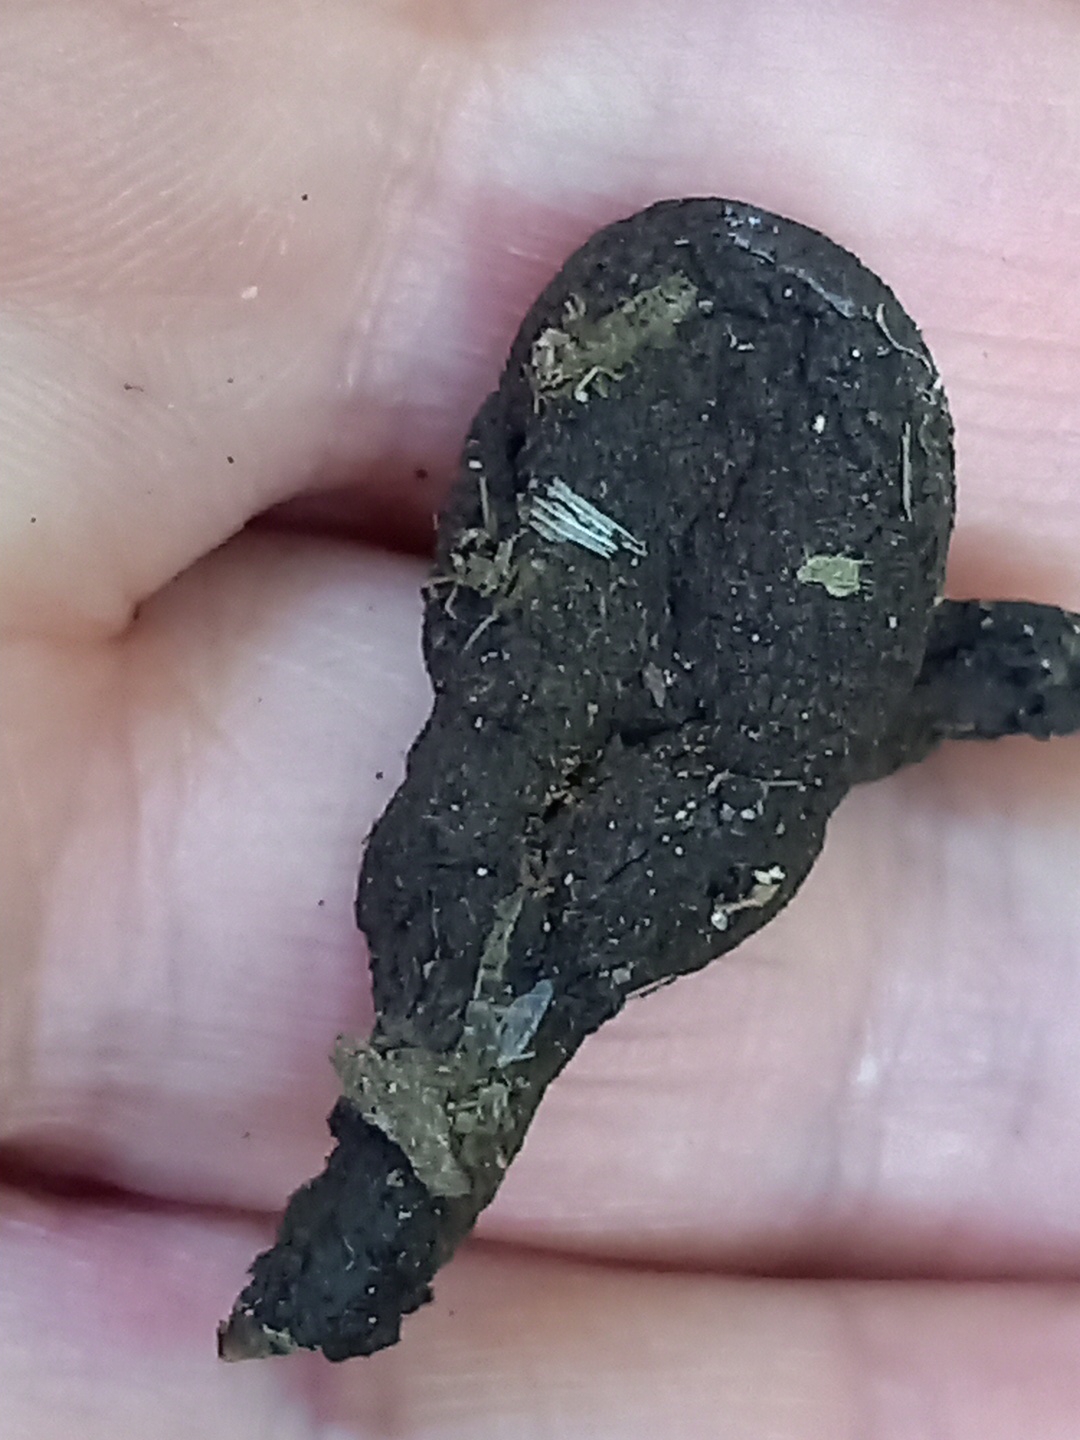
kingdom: Fungi
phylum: Ascomycota
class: Sordariomycetes
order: Xylariales
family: Xylariaceae
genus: Xylaria
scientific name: Xylaria polymorpha
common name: kølle-stødsvamp
